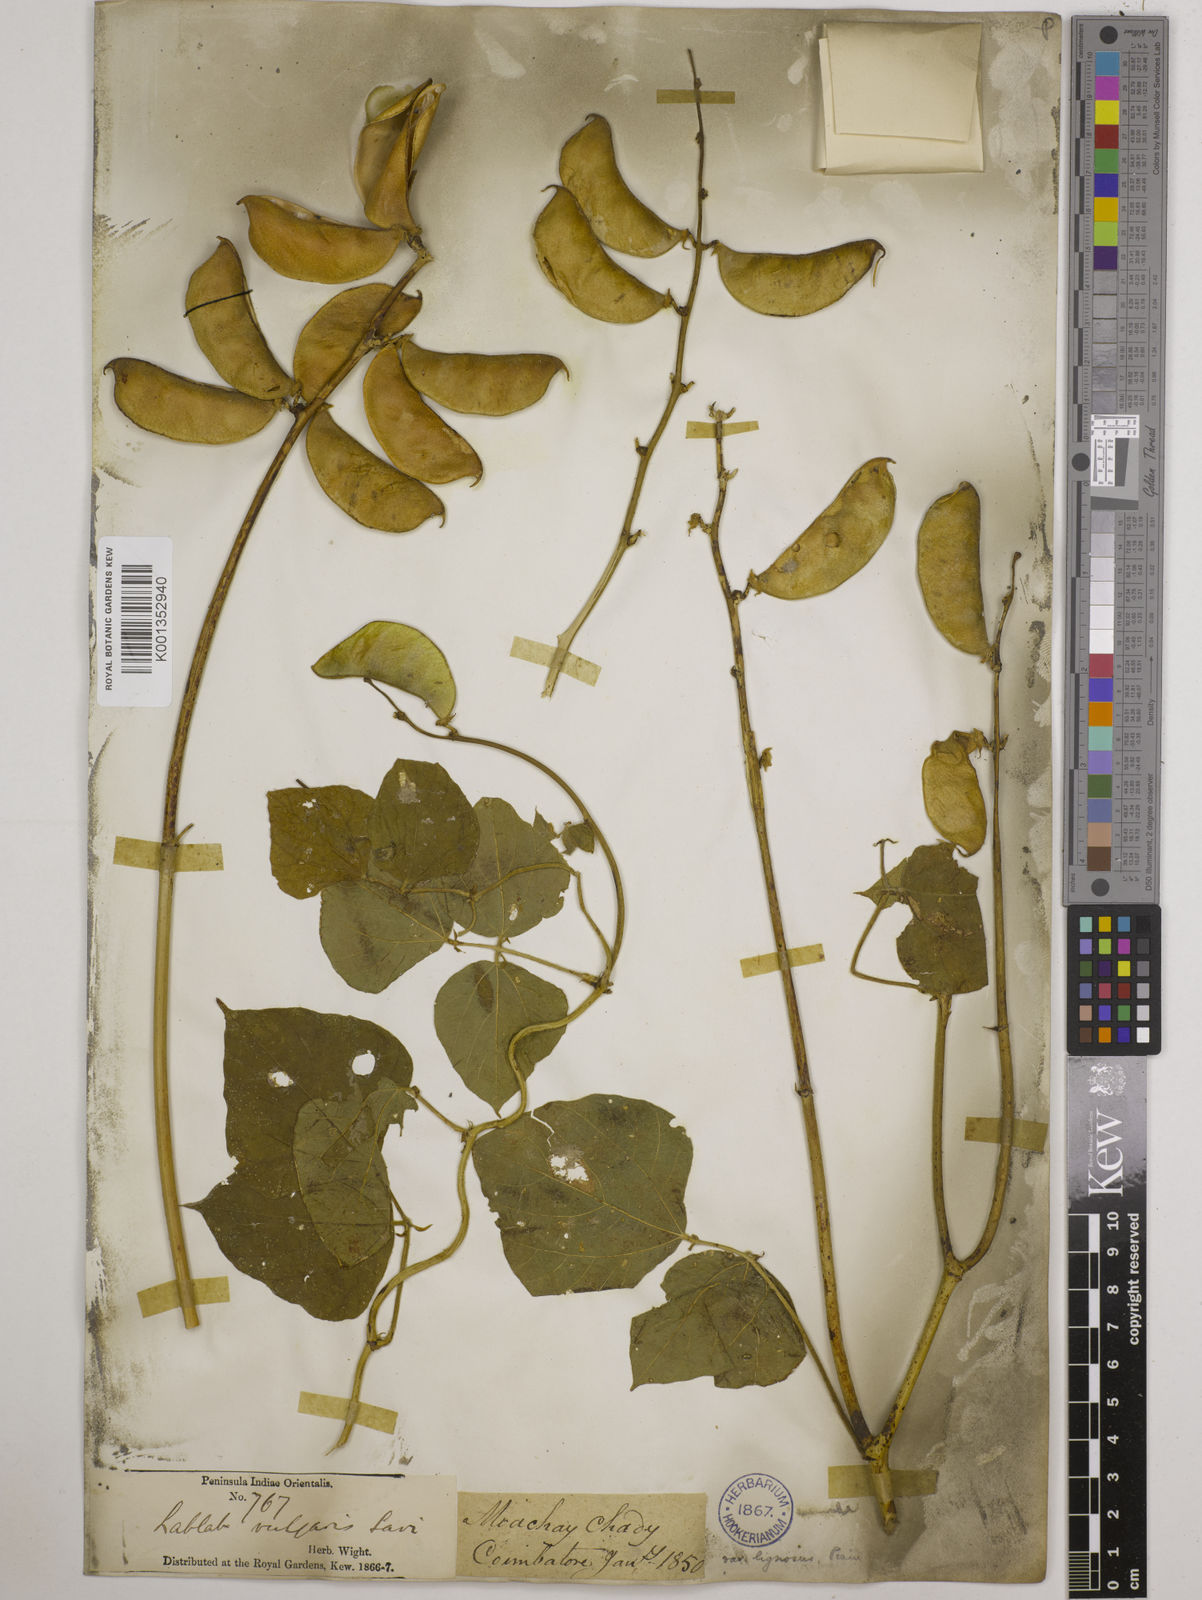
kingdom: Plantae
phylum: Tracheophyta
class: Magnoliopsida
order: Fabales
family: Fabaceae
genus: Lablab
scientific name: Lablab purpureus
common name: Lablab-bean
